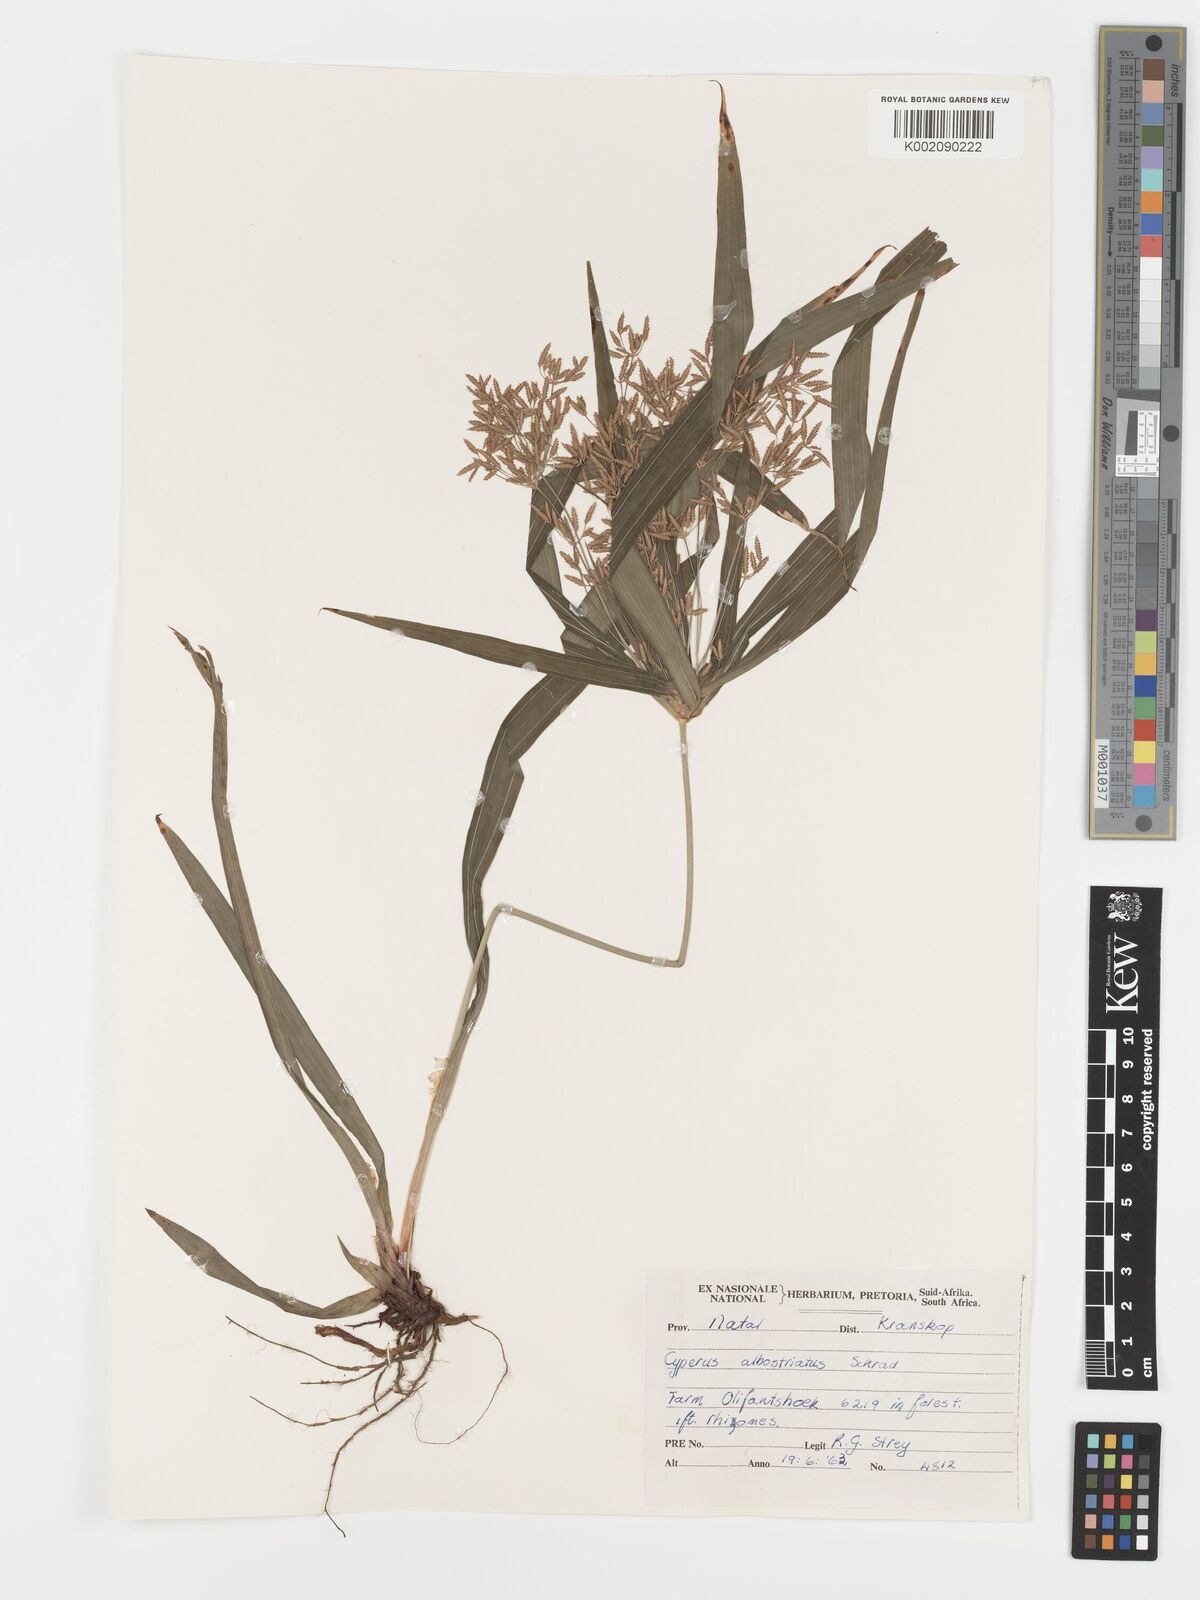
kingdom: Plantae
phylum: Tracheophyta
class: Liliopsida
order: Poales
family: Cyperaceae
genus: Cyperus
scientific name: Cyperus albostriatus
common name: Dwarf umbrella-grass
